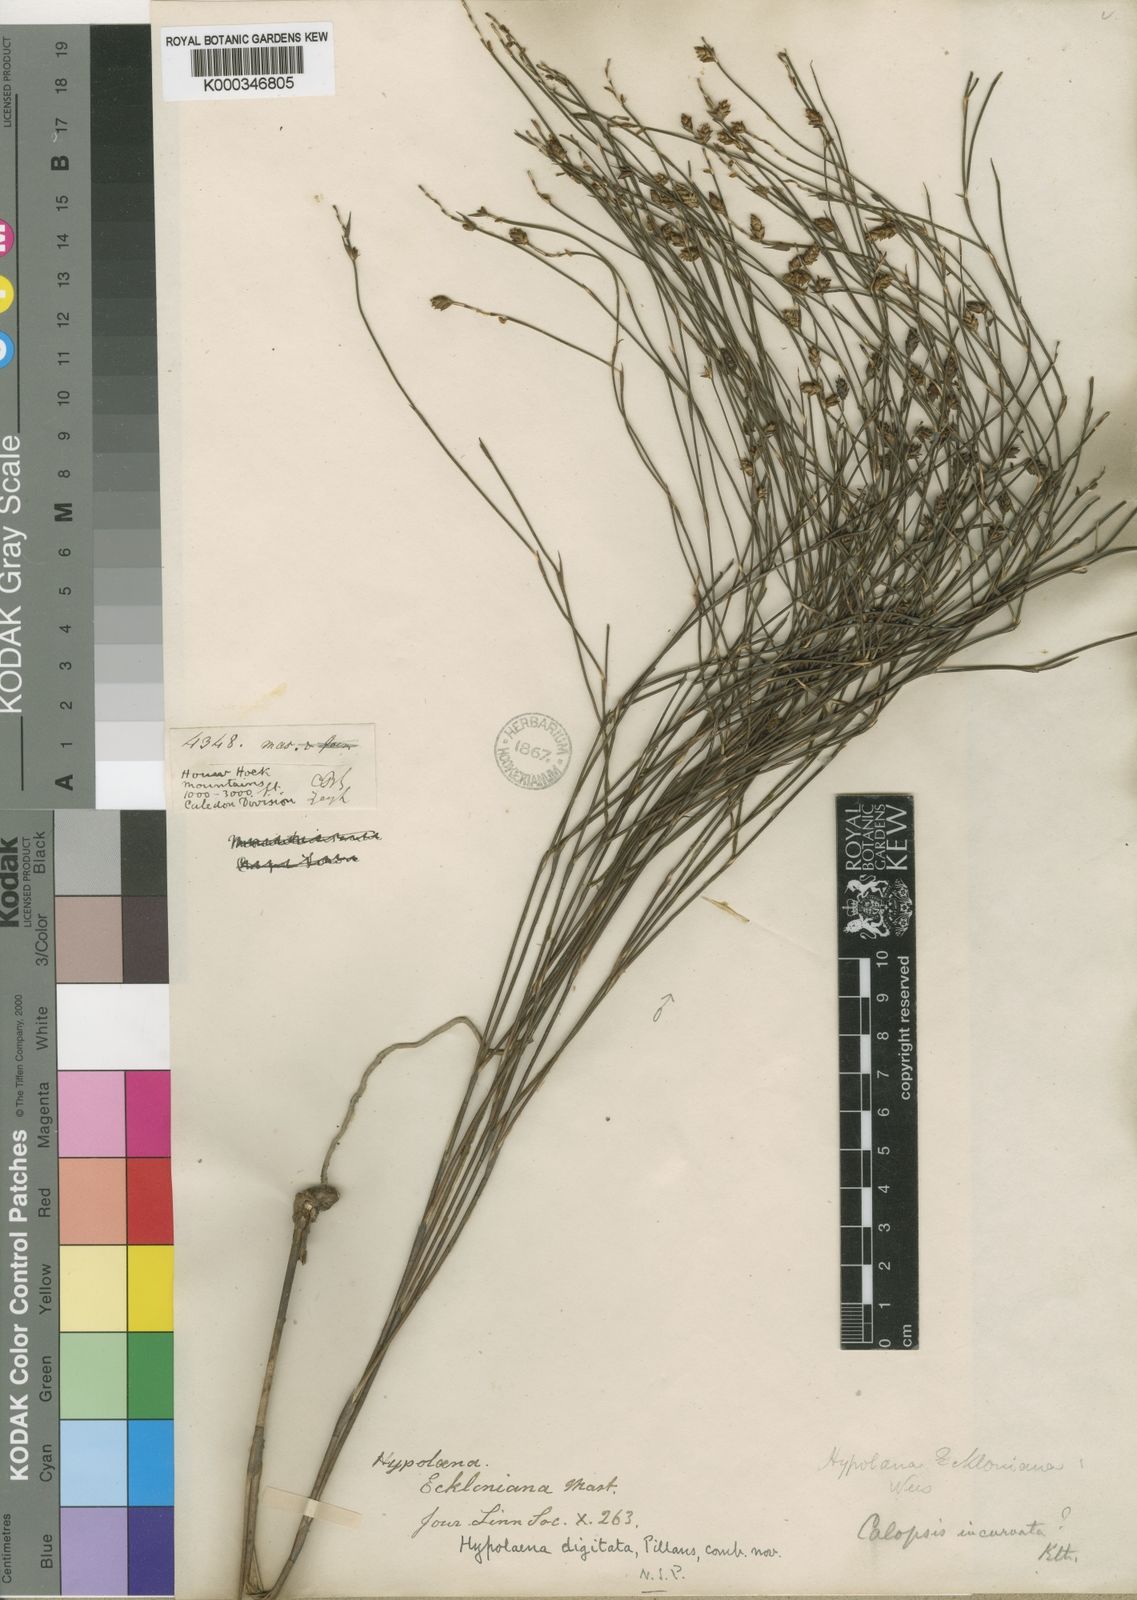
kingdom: Plantae
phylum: Tracheophyta
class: Liliopsida
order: Poales
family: Restionaceae
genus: Mastersiella
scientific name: Mastersiella digitata
